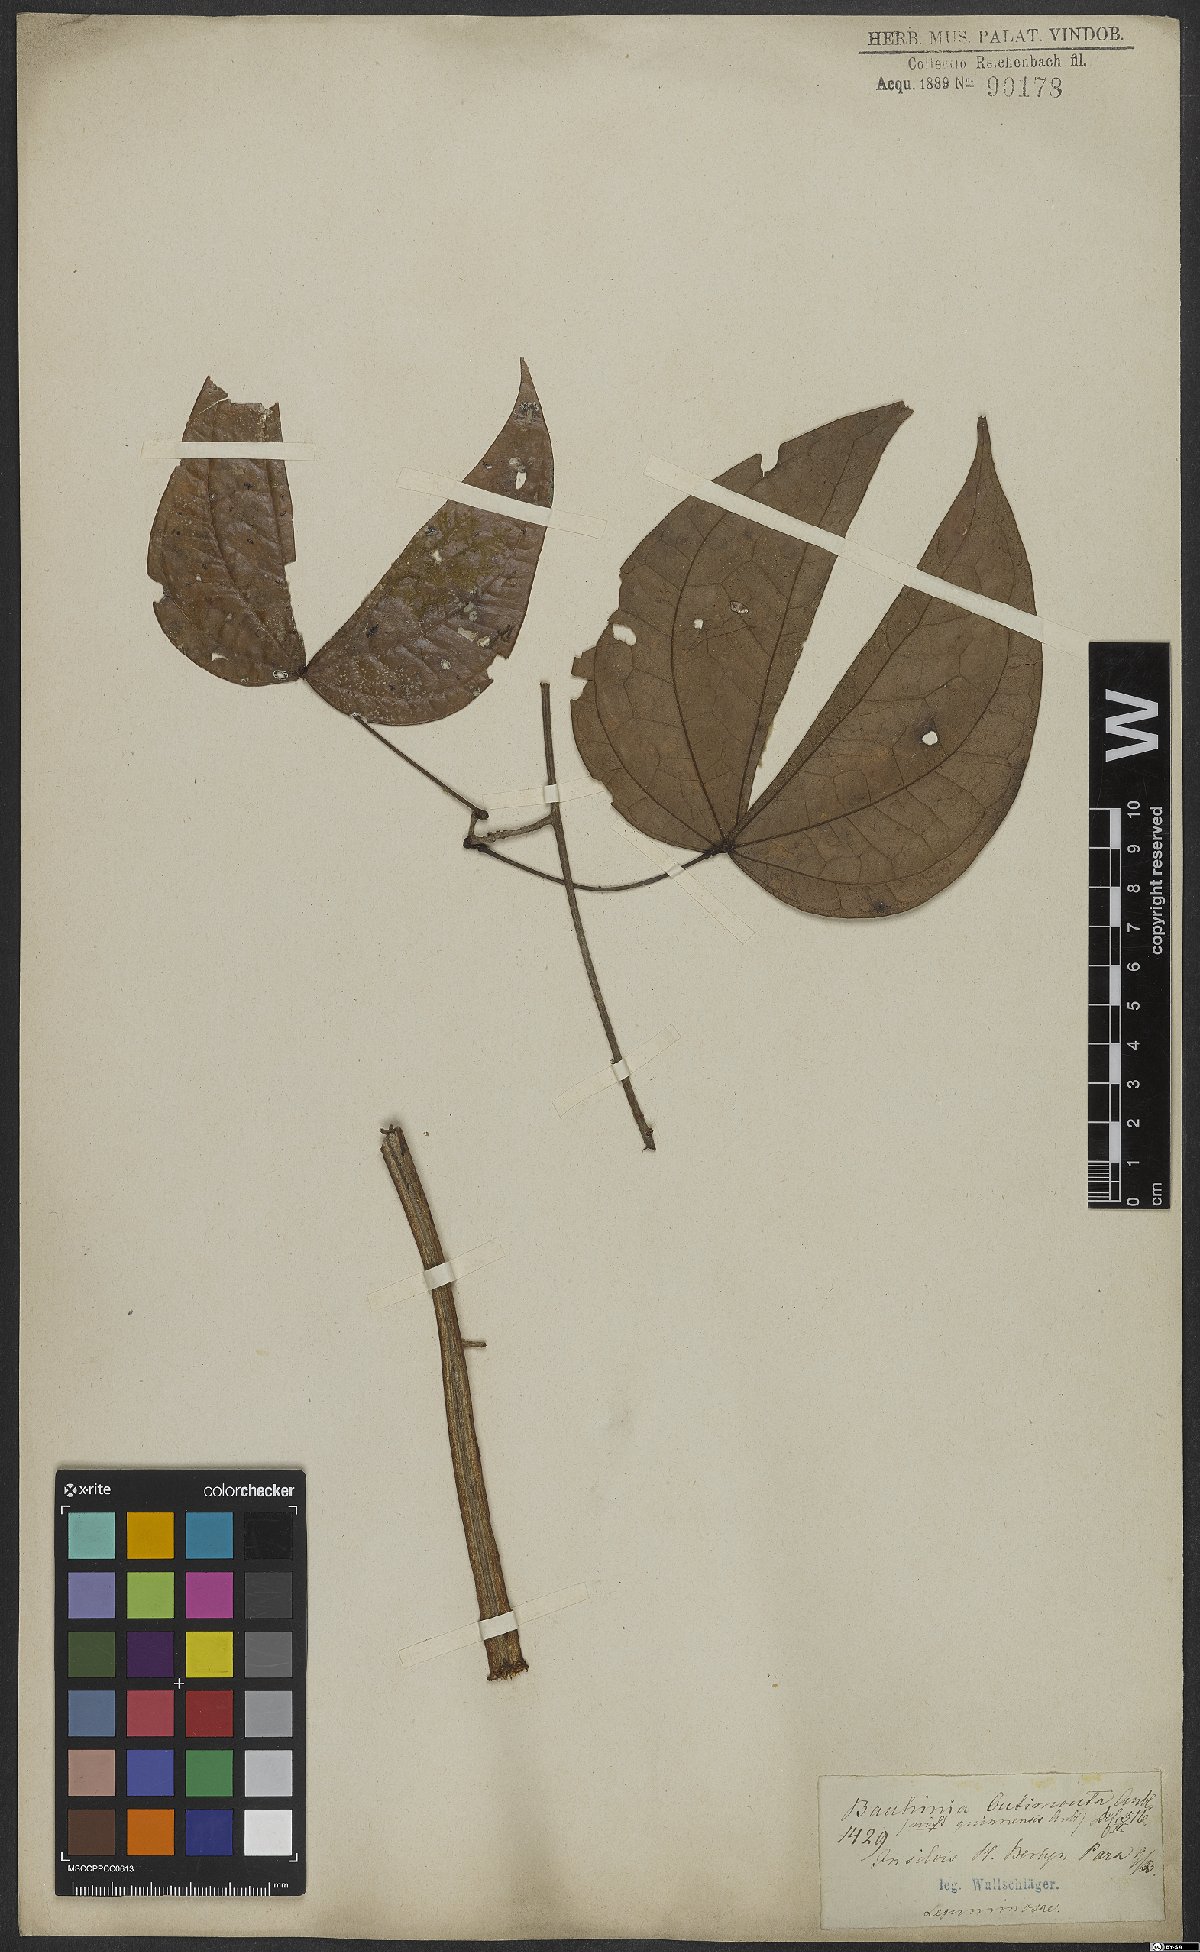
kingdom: Plantae
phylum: Tracheophyta
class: Magnoliopsida
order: Fabales
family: Fabaceae
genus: Schnella
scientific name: Schnella guianensis
